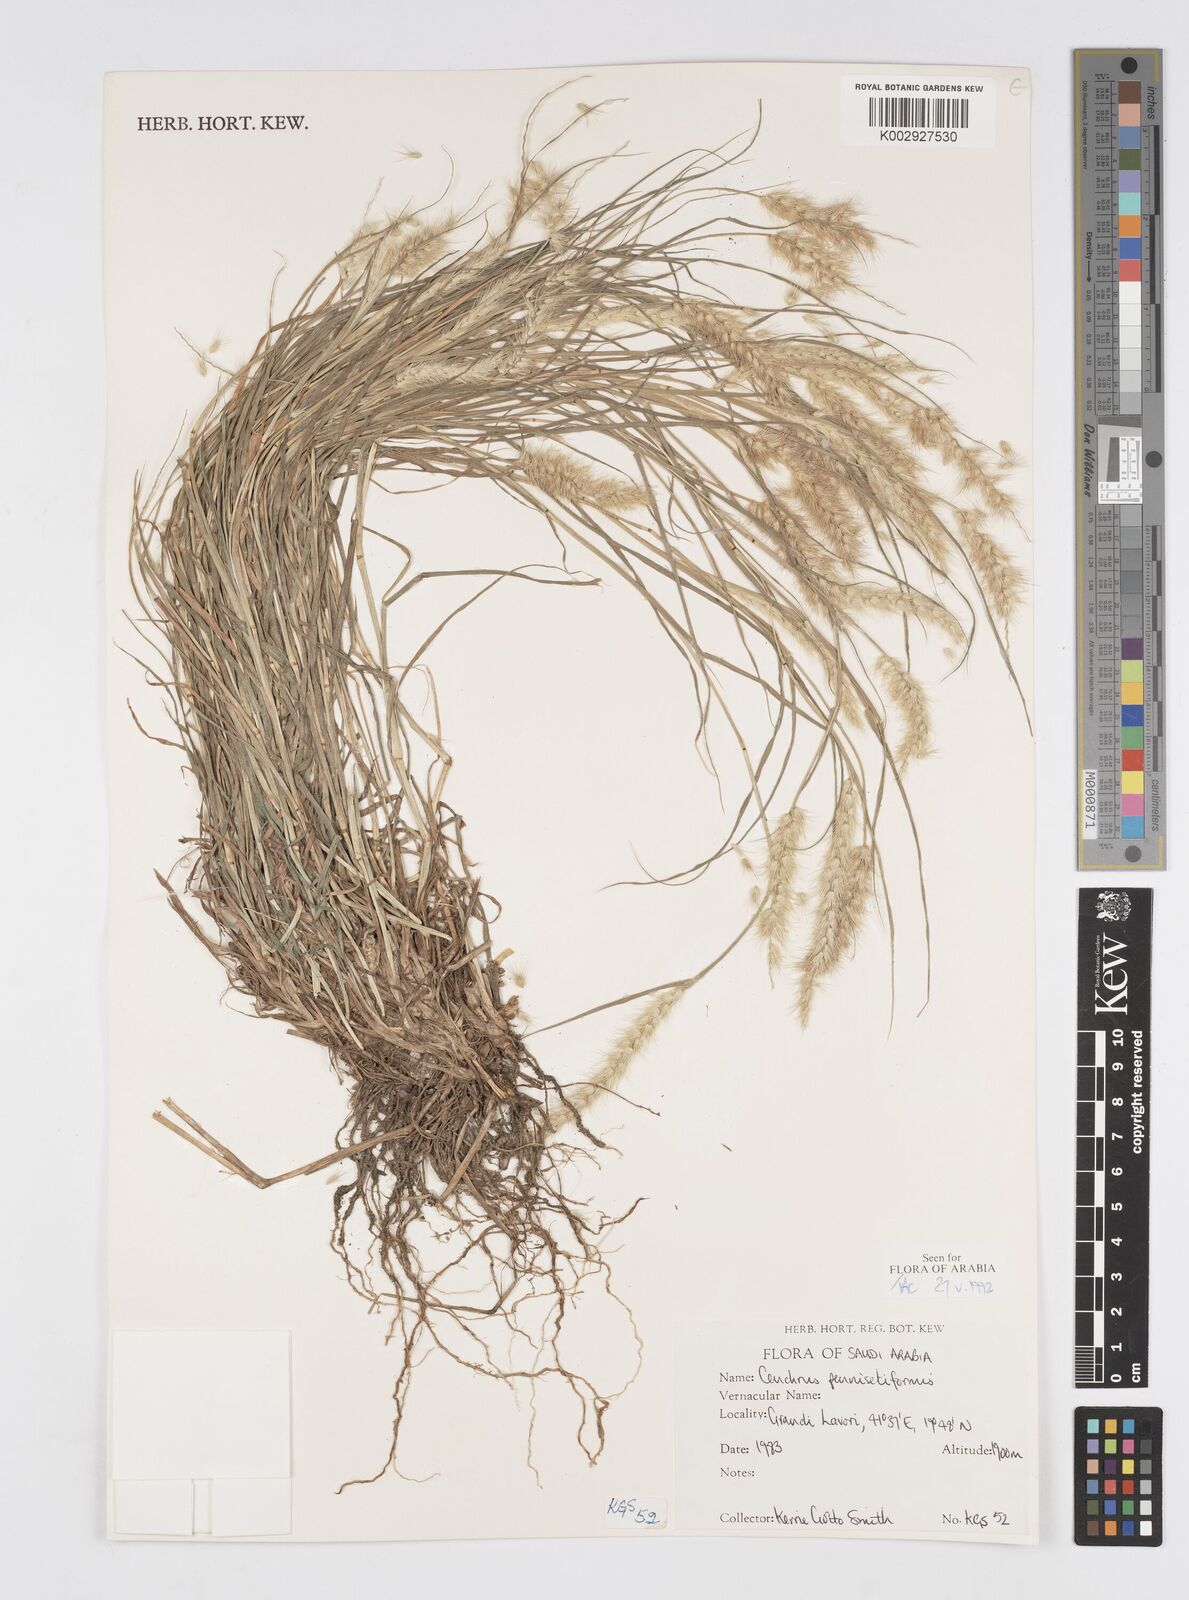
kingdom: Plantae
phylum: Tracheophyta
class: Liliopsida
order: Poales
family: Poaceae
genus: Cenchrus
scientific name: Cenchrus
